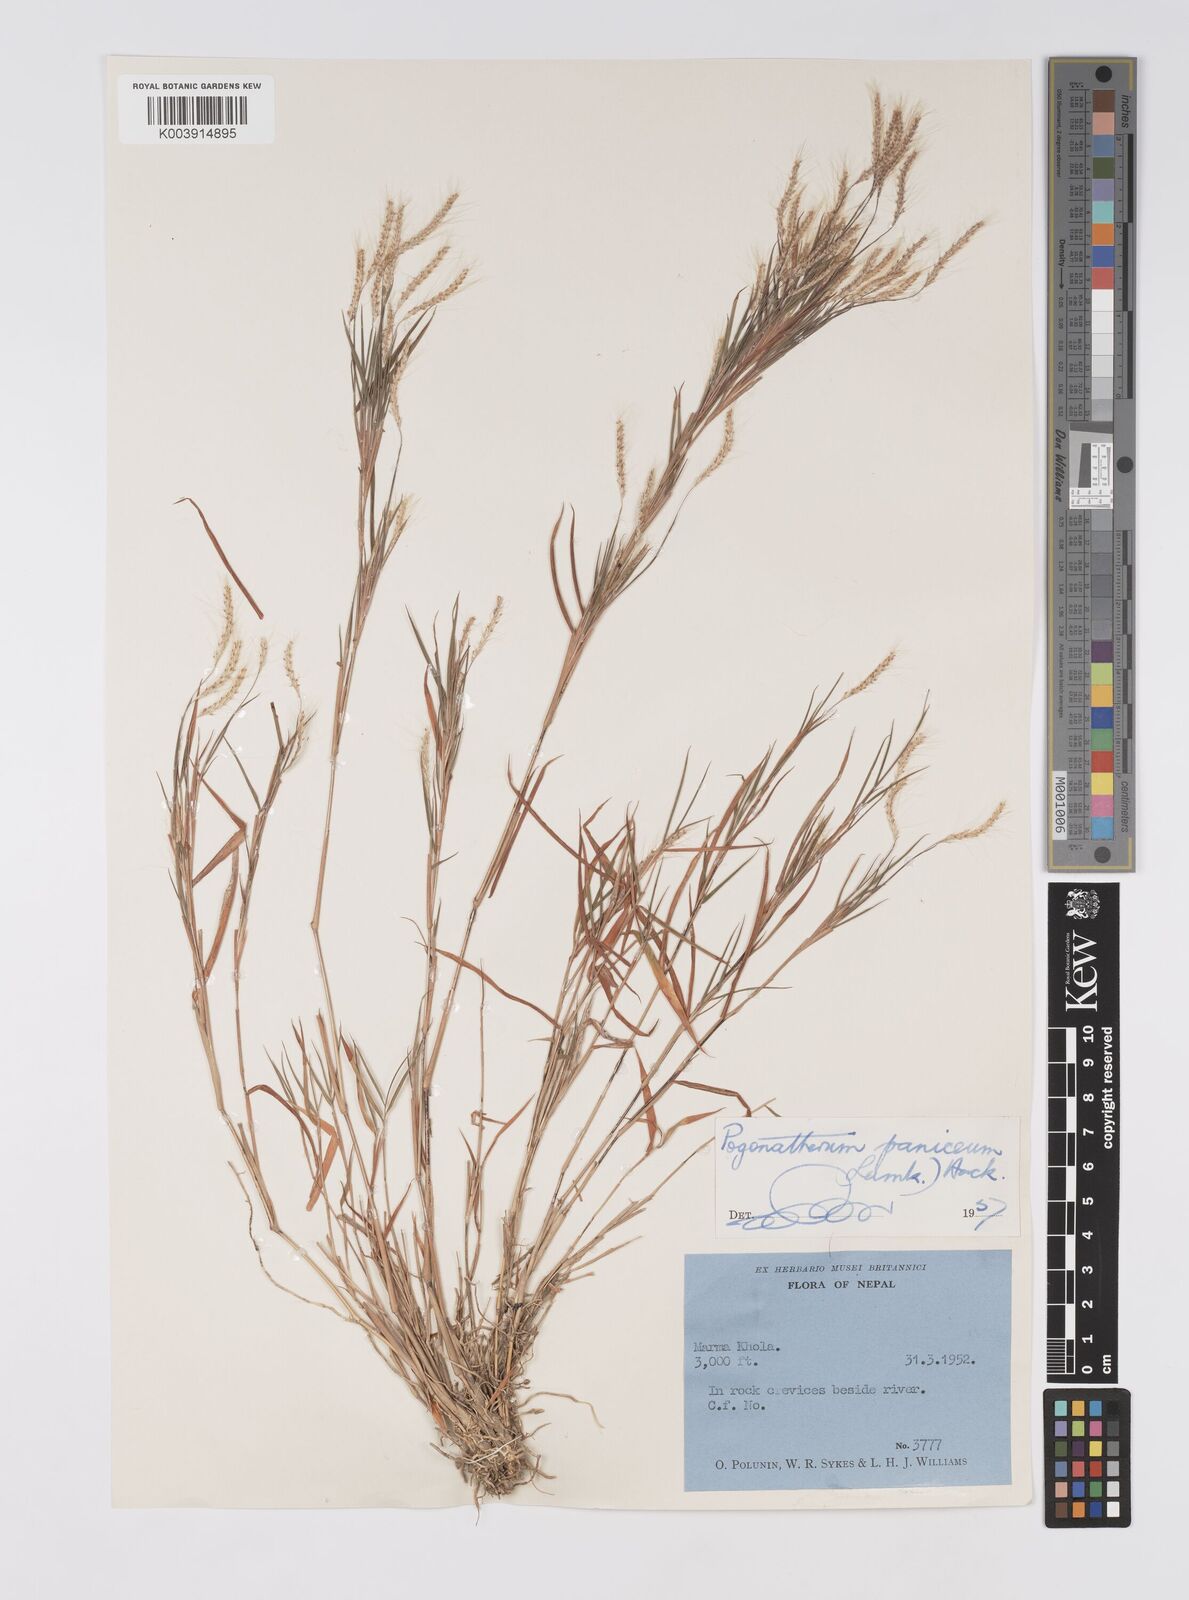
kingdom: Plantae
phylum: Tracheophyta
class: Liliopsida
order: Poales
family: Poaceae
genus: Pogonatherum
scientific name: Pogonatherum paniceum
